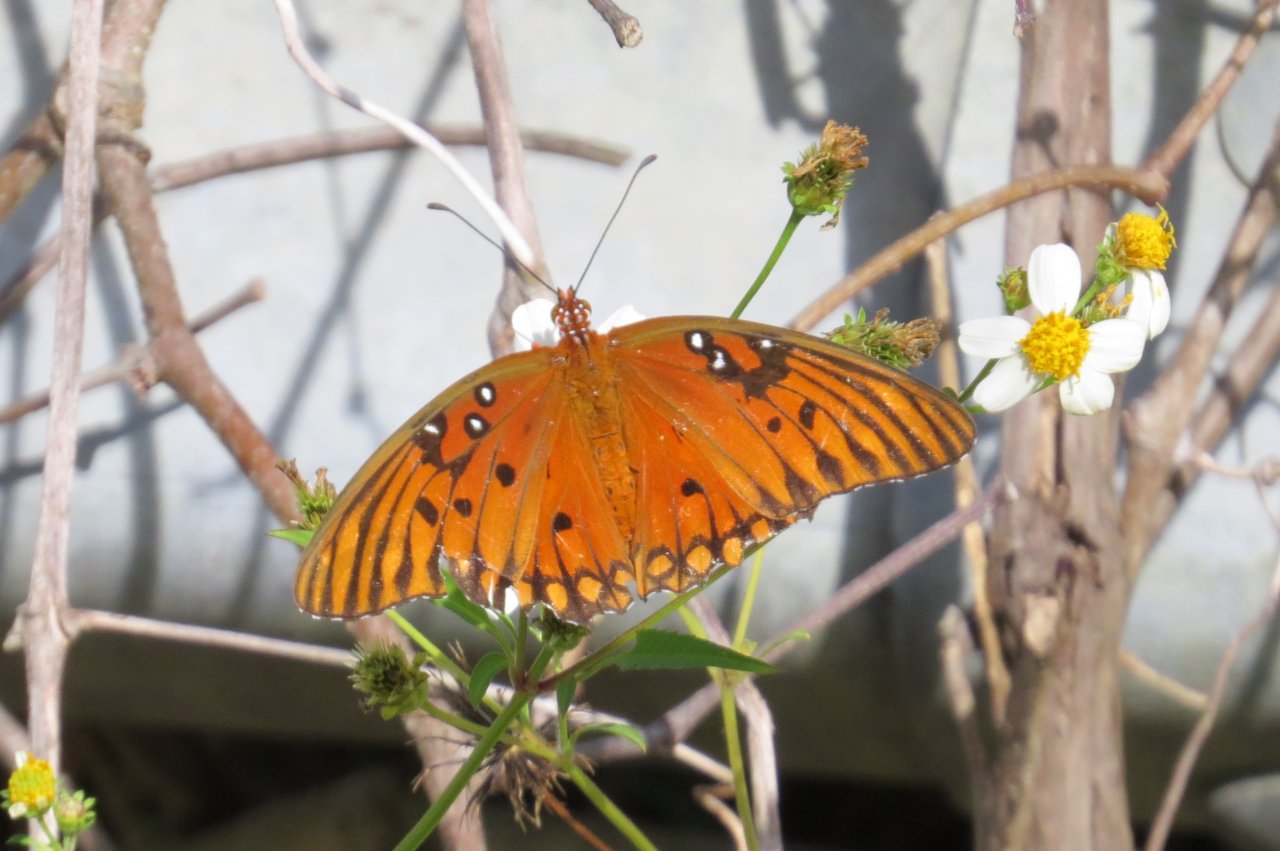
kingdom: Animalia
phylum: Arthropoda
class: Insecta
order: Lepidoptera
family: Nymphalidae
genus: Dione
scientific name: Dione vanillae
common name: Gulf Fritillary
